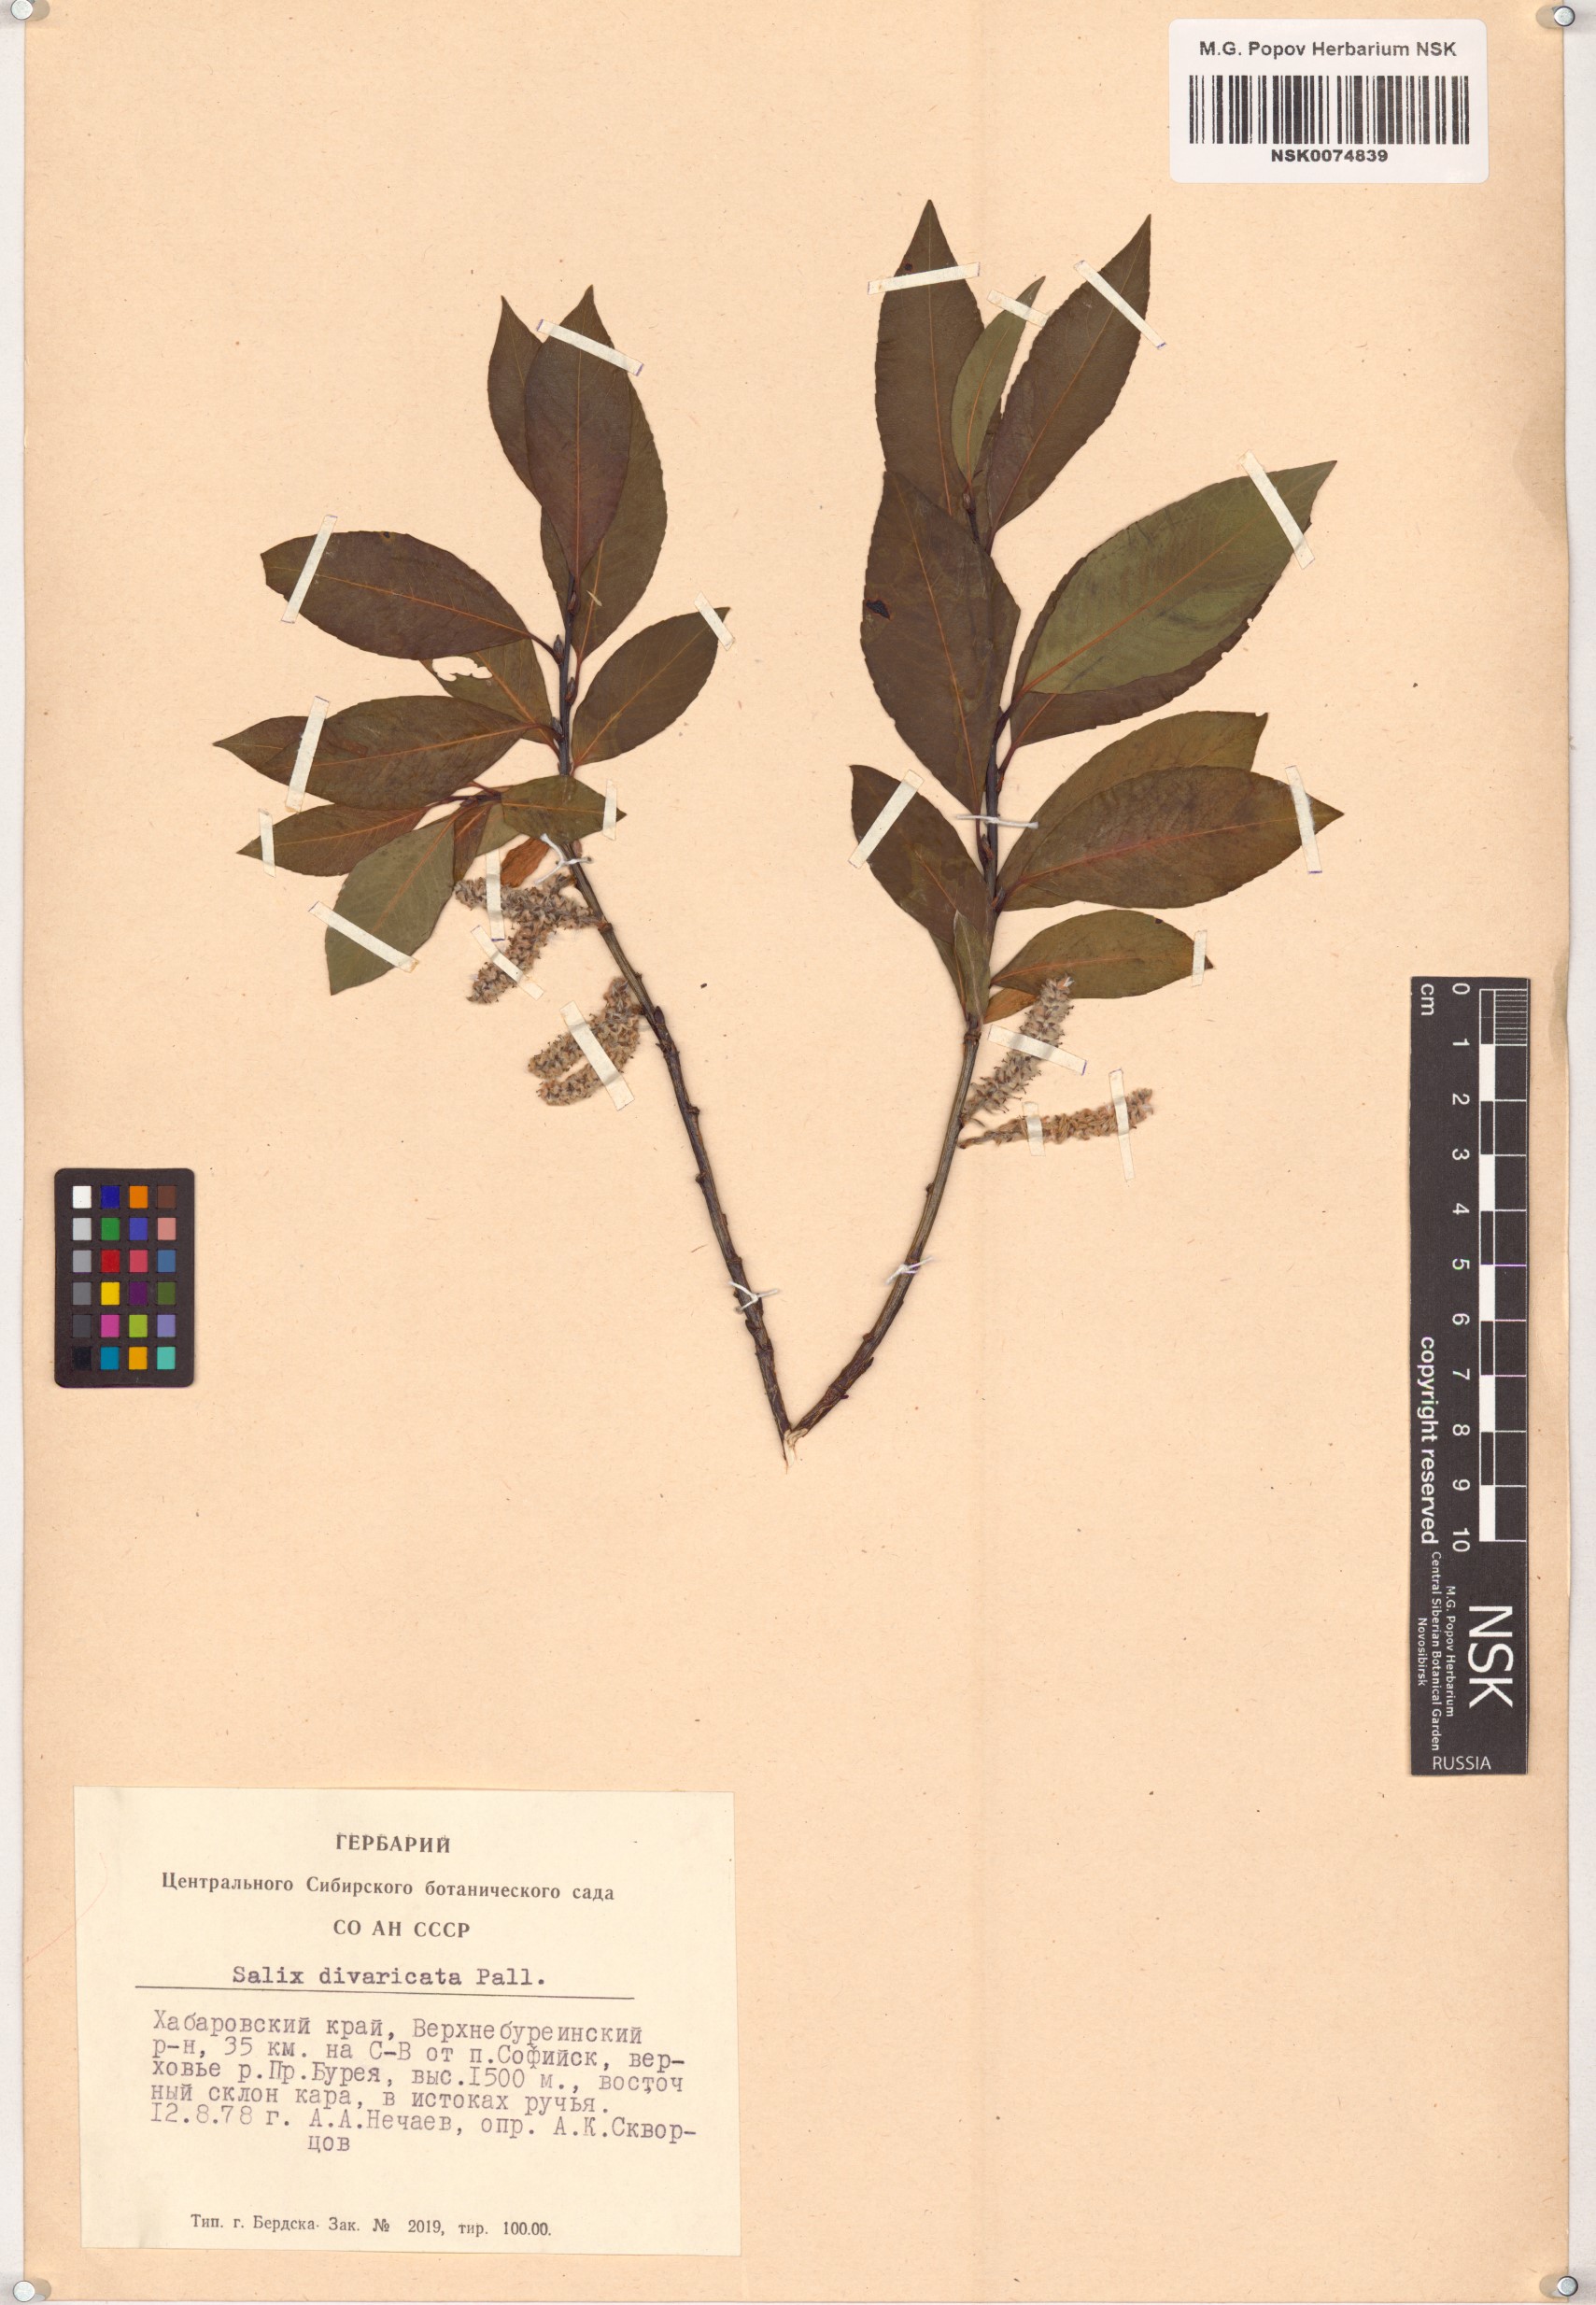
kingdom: Plantae
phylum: Tracheophyta
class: Magnoliopsida
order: Malpighiales
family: Salicaceae
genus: Salix
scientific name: Salix divaricata
